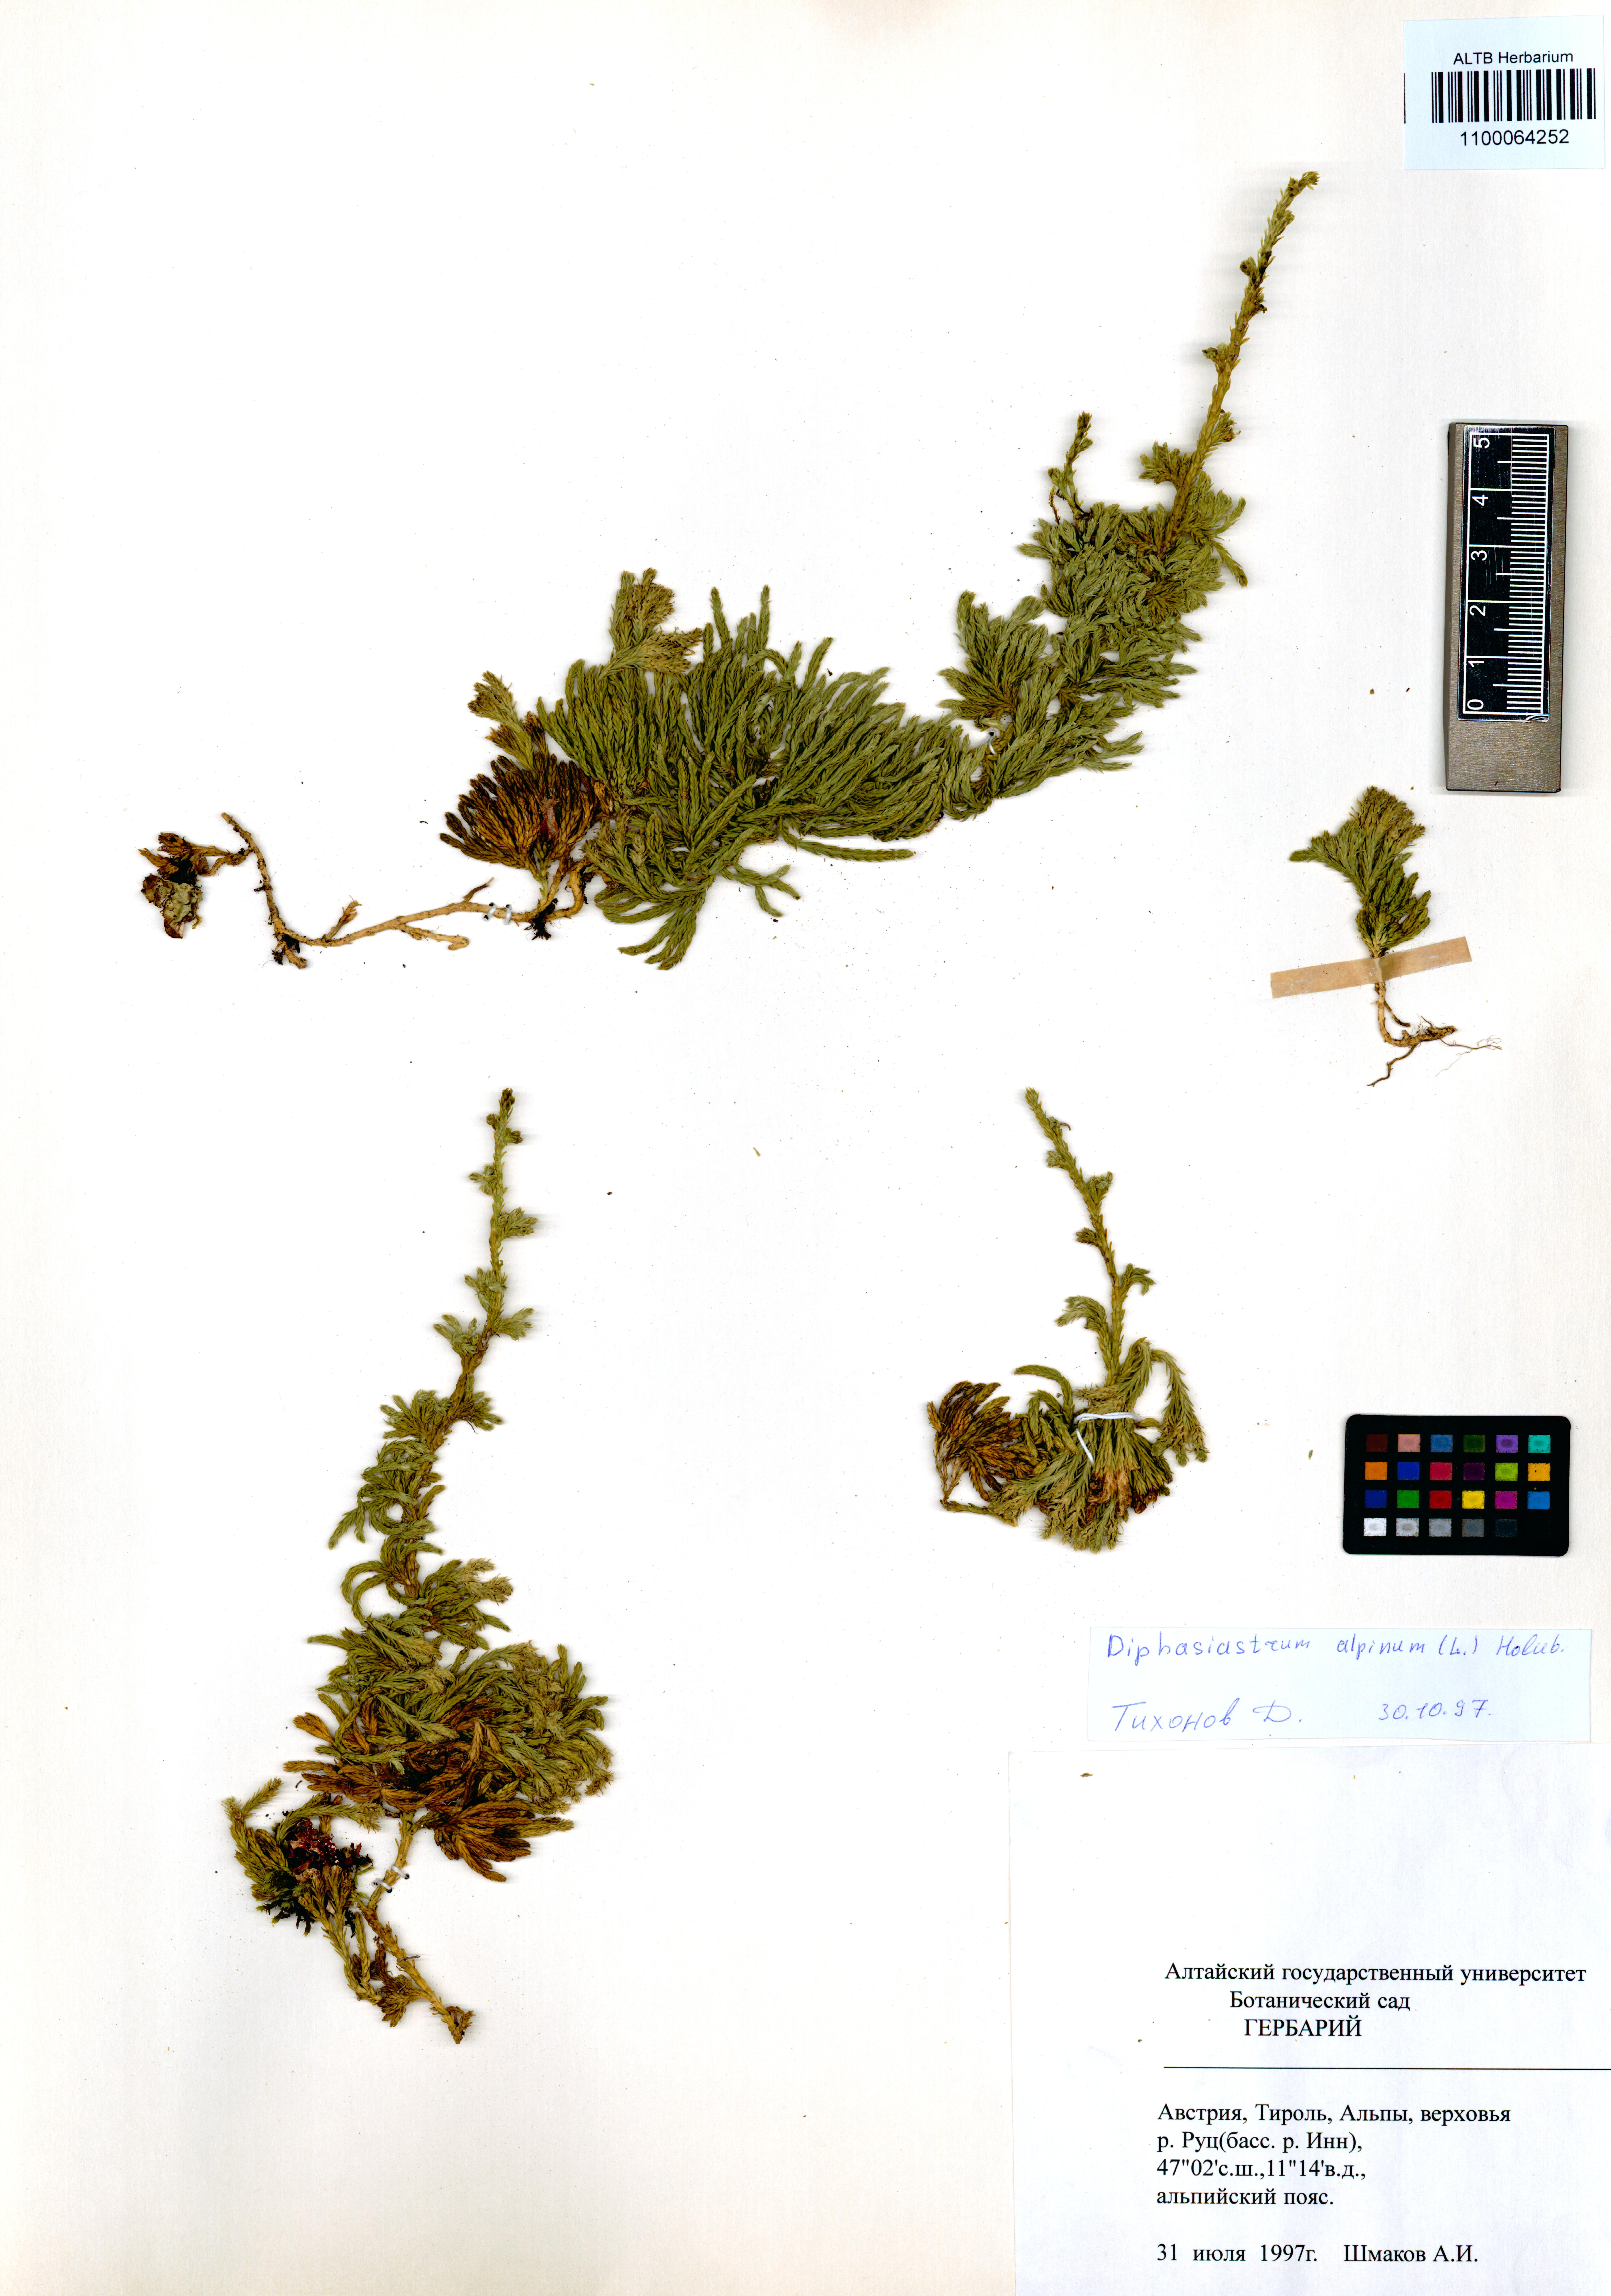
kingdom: Plantae
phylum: Tracheophyta
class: Lycopodiopsida
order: Lycopodiales
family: Lycopodiaceae
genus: Diphasiastrum
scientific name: Diphasiastrum alpinum
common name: Alpine clubmoss
